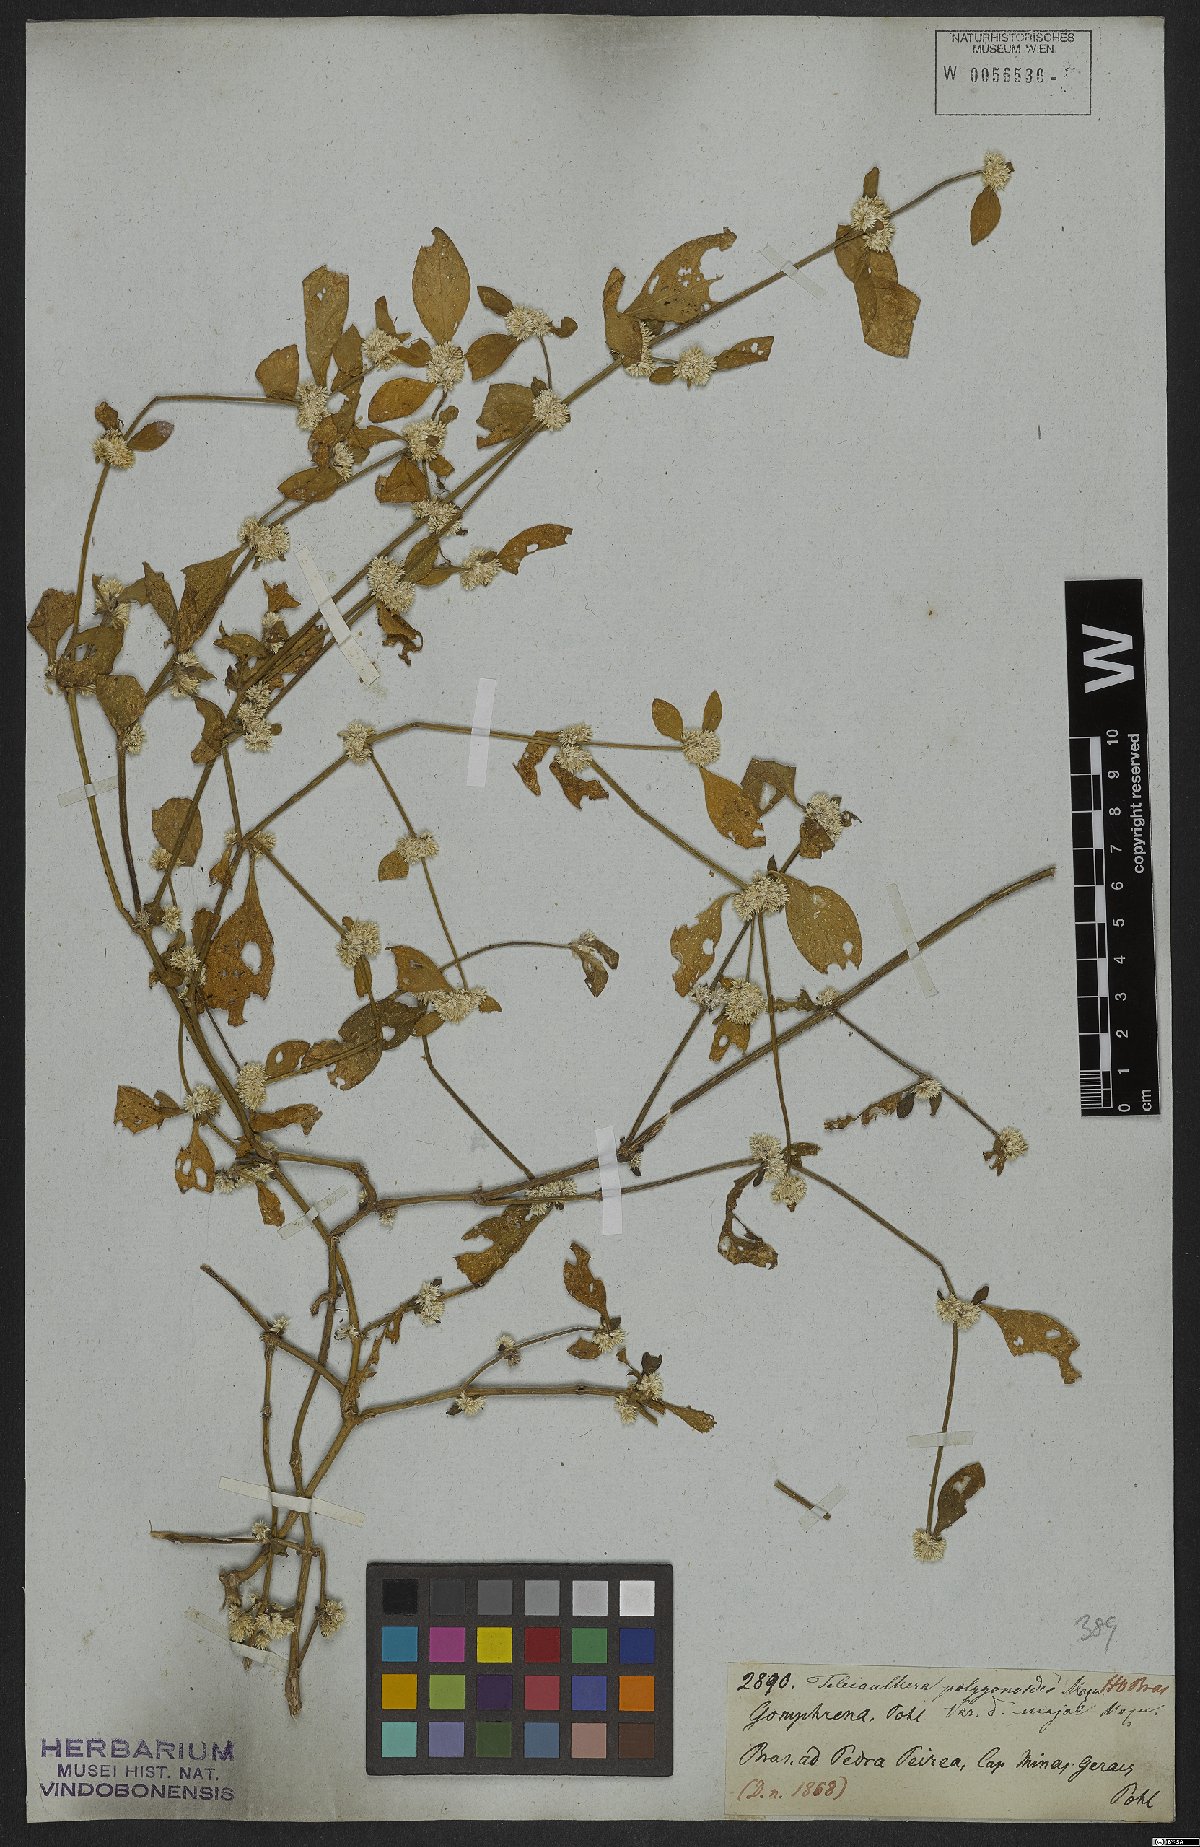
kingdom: Plantae
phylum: Tracheophyta
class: Magnoliopsida
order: Caryophyllales
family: Amaranthaceae
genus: Alternanthera
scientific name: Alternanthera sessilis
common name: Sessile joyweed
